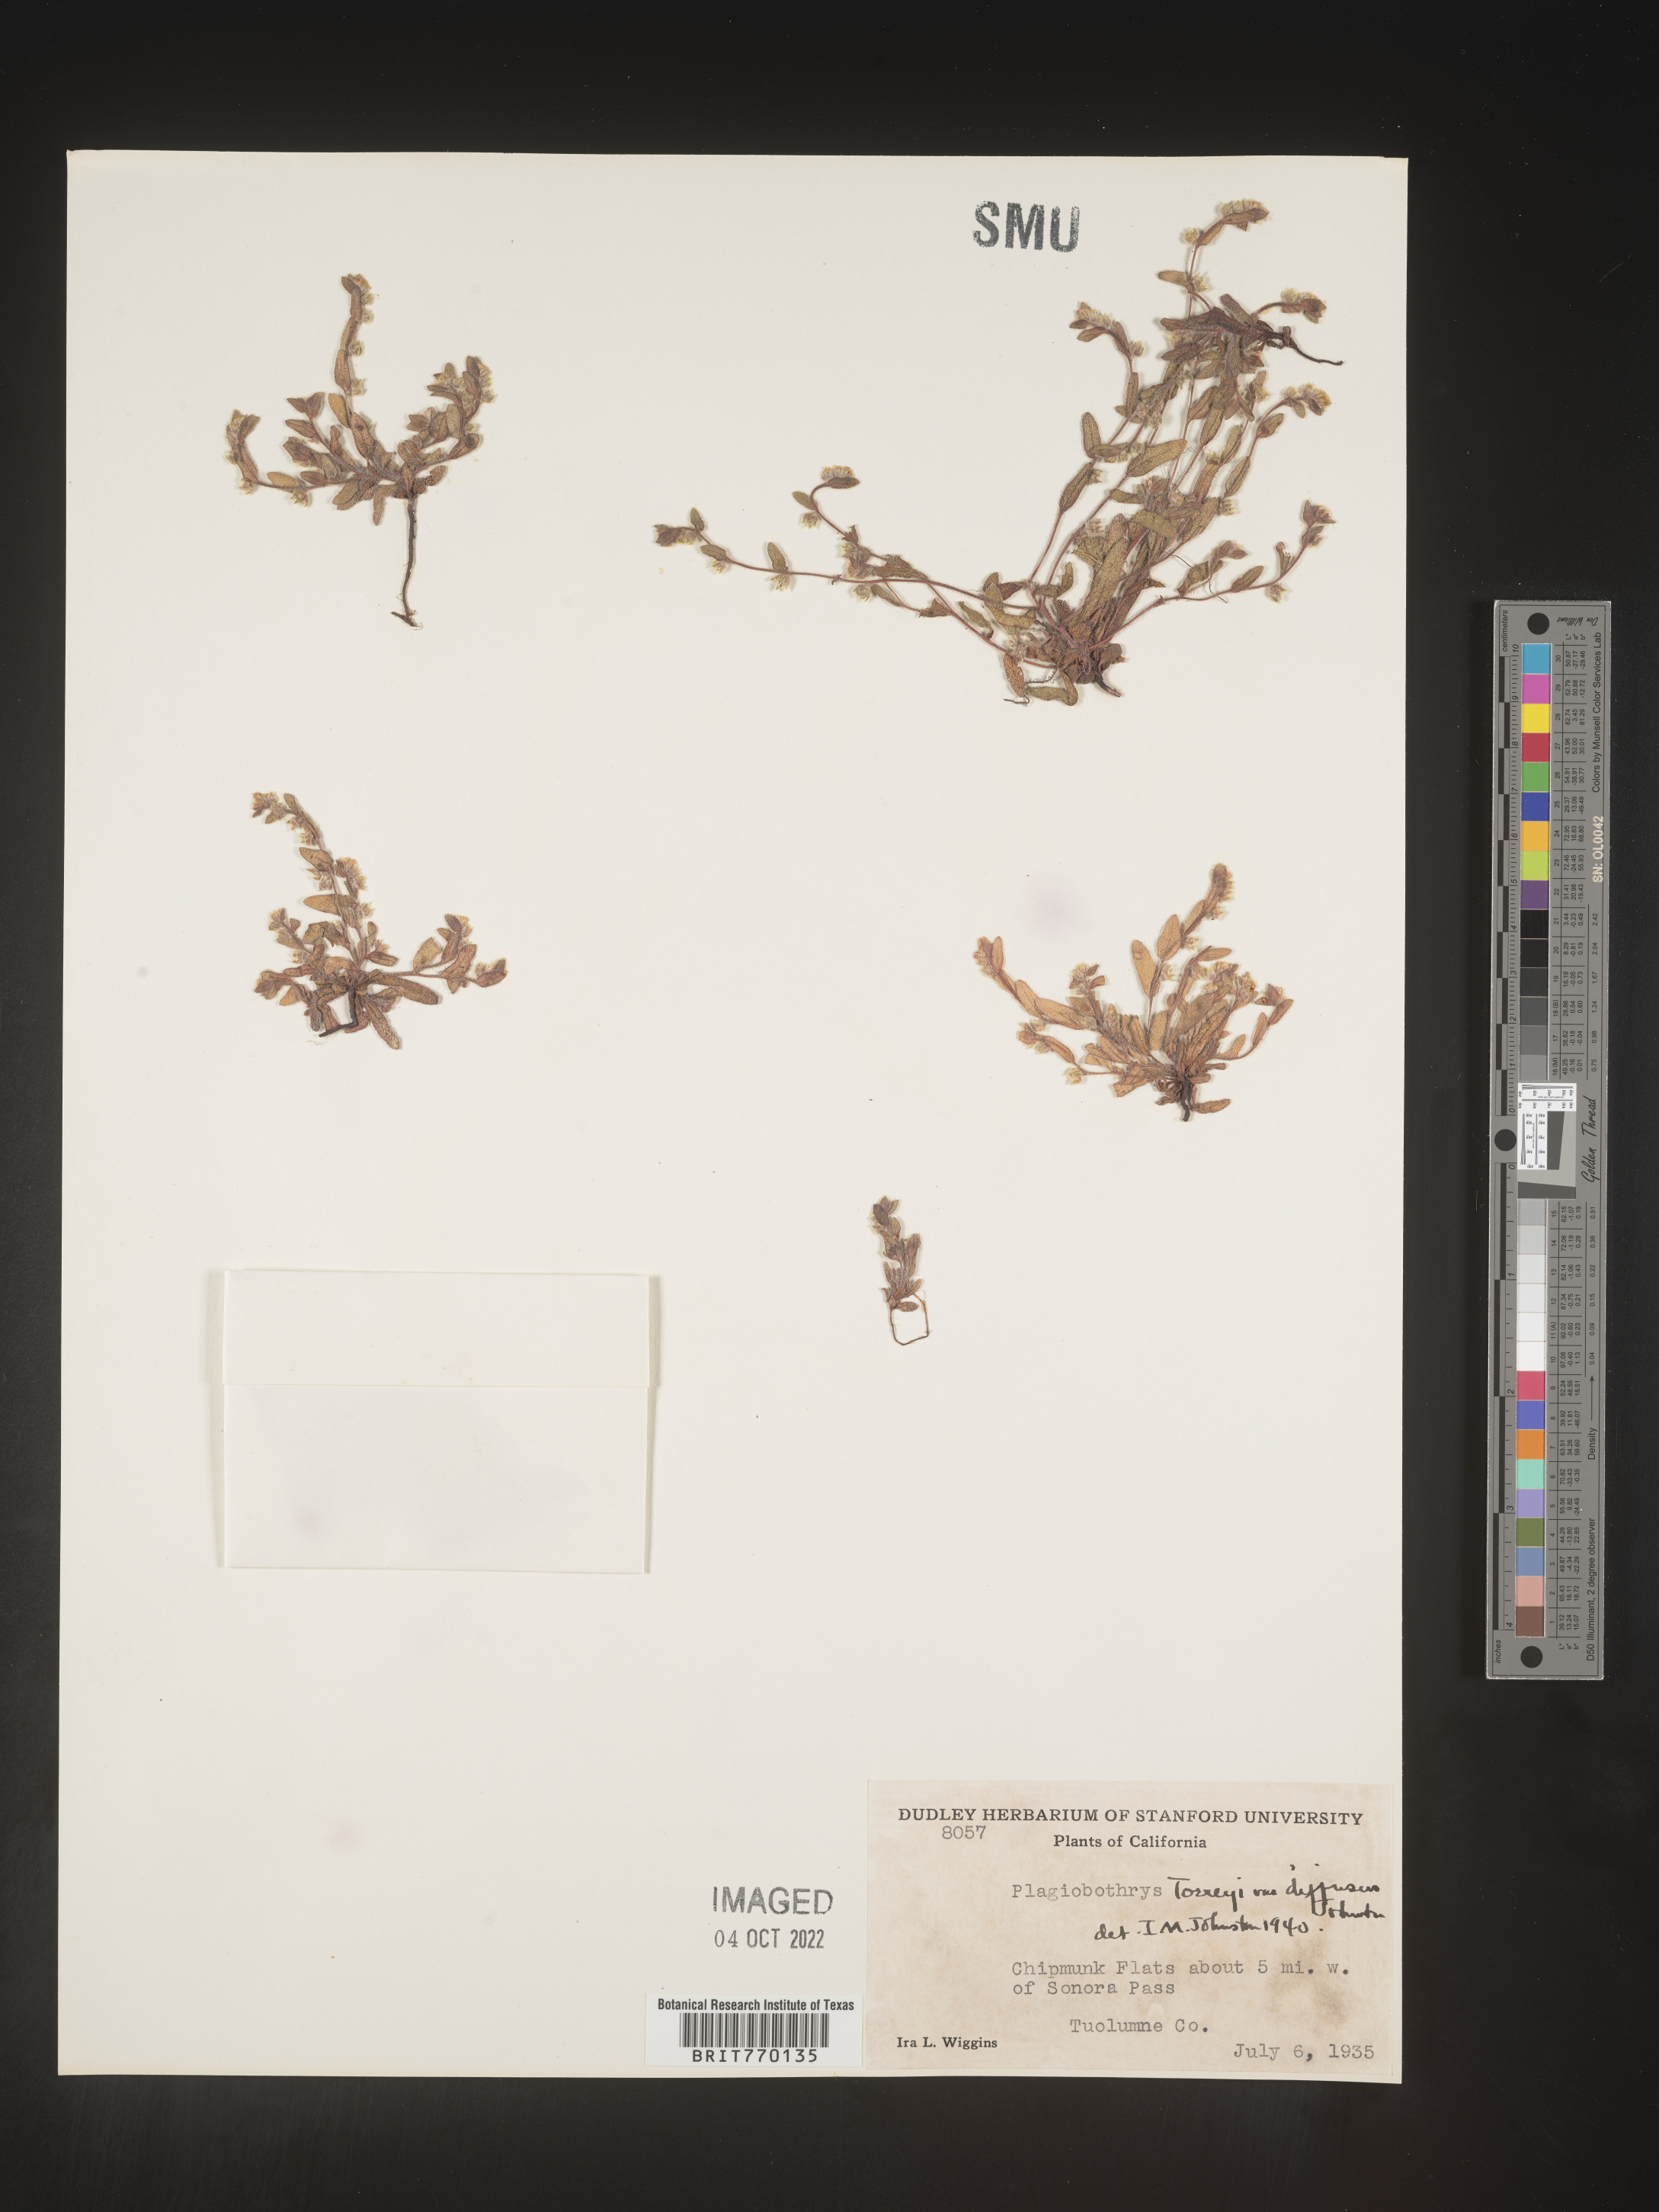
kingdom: Plantae
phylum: Tracheophyta
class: Magnoliopsida
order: Boraginales
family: Boraginaceae
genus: Plagiobothrys
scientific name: Plagiobothrys
